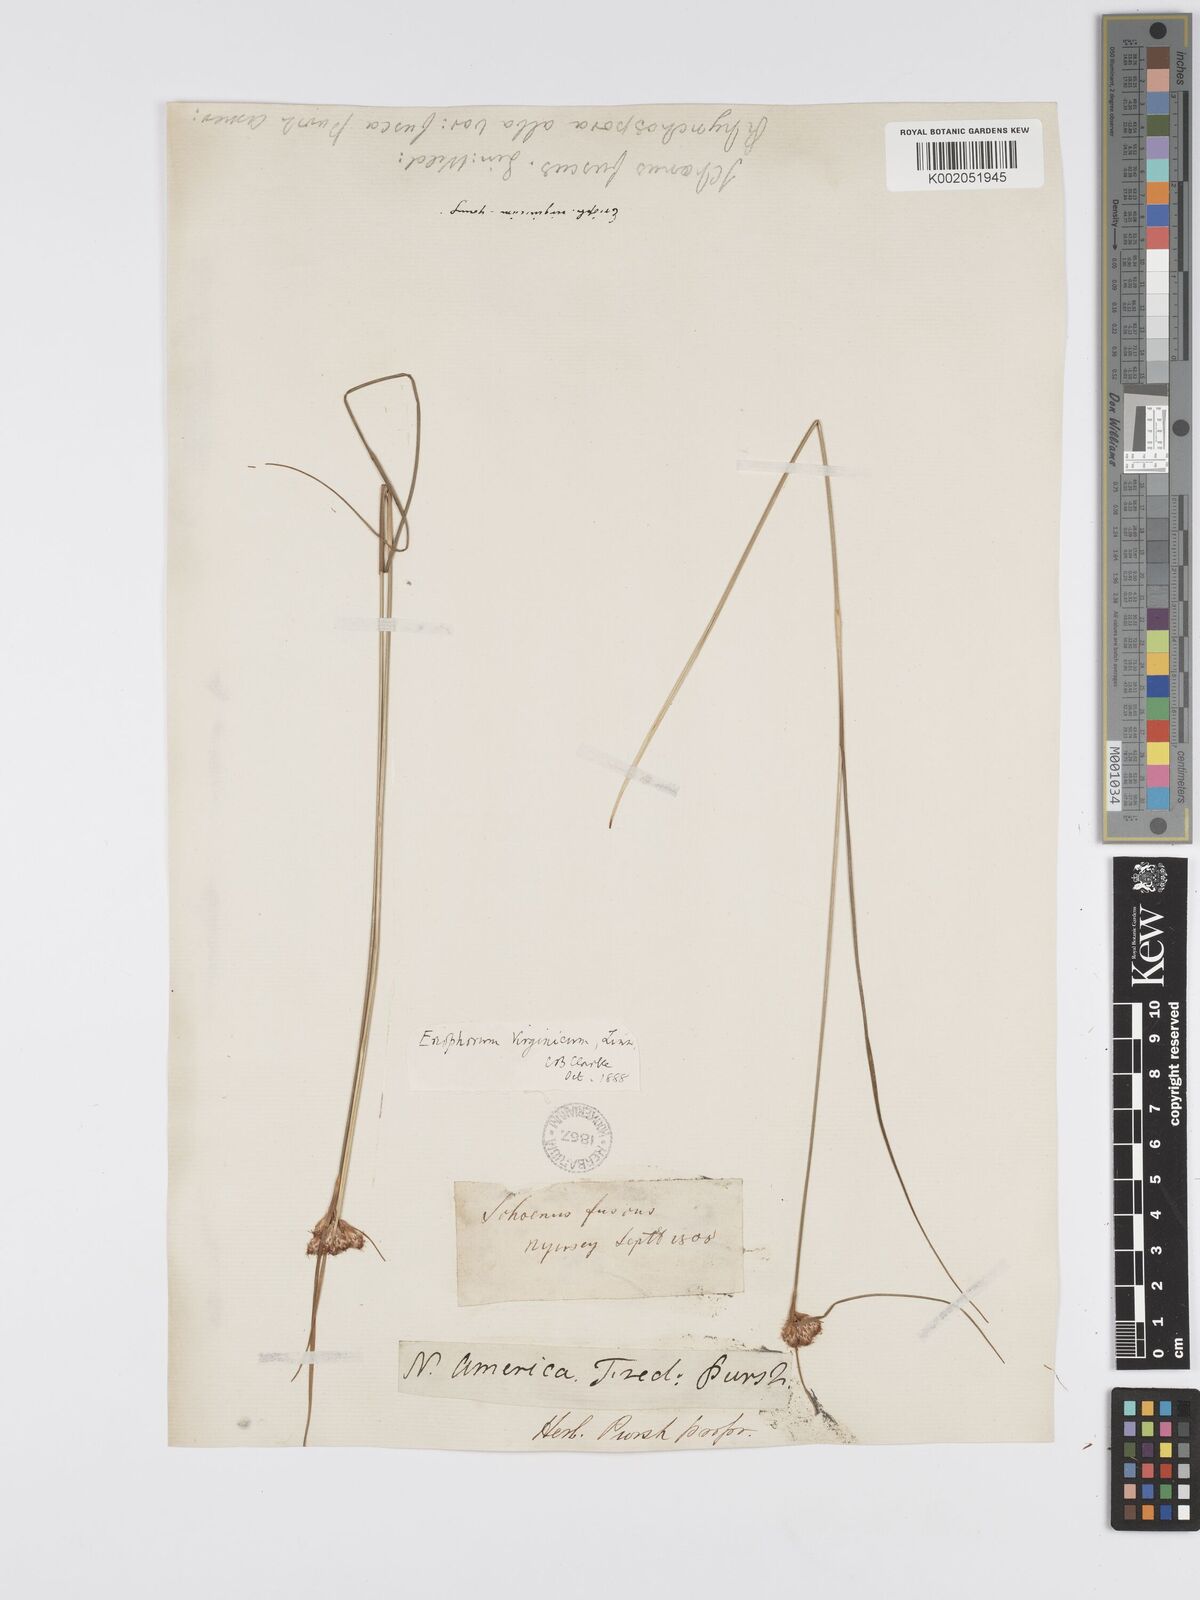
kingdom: Plantae
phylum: Tracheophyta
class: Liliopsida
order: Poales
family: Cyperaceae
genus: Eriophorum
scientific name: Eriophorum virginicum
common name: Tawny cottongrass
